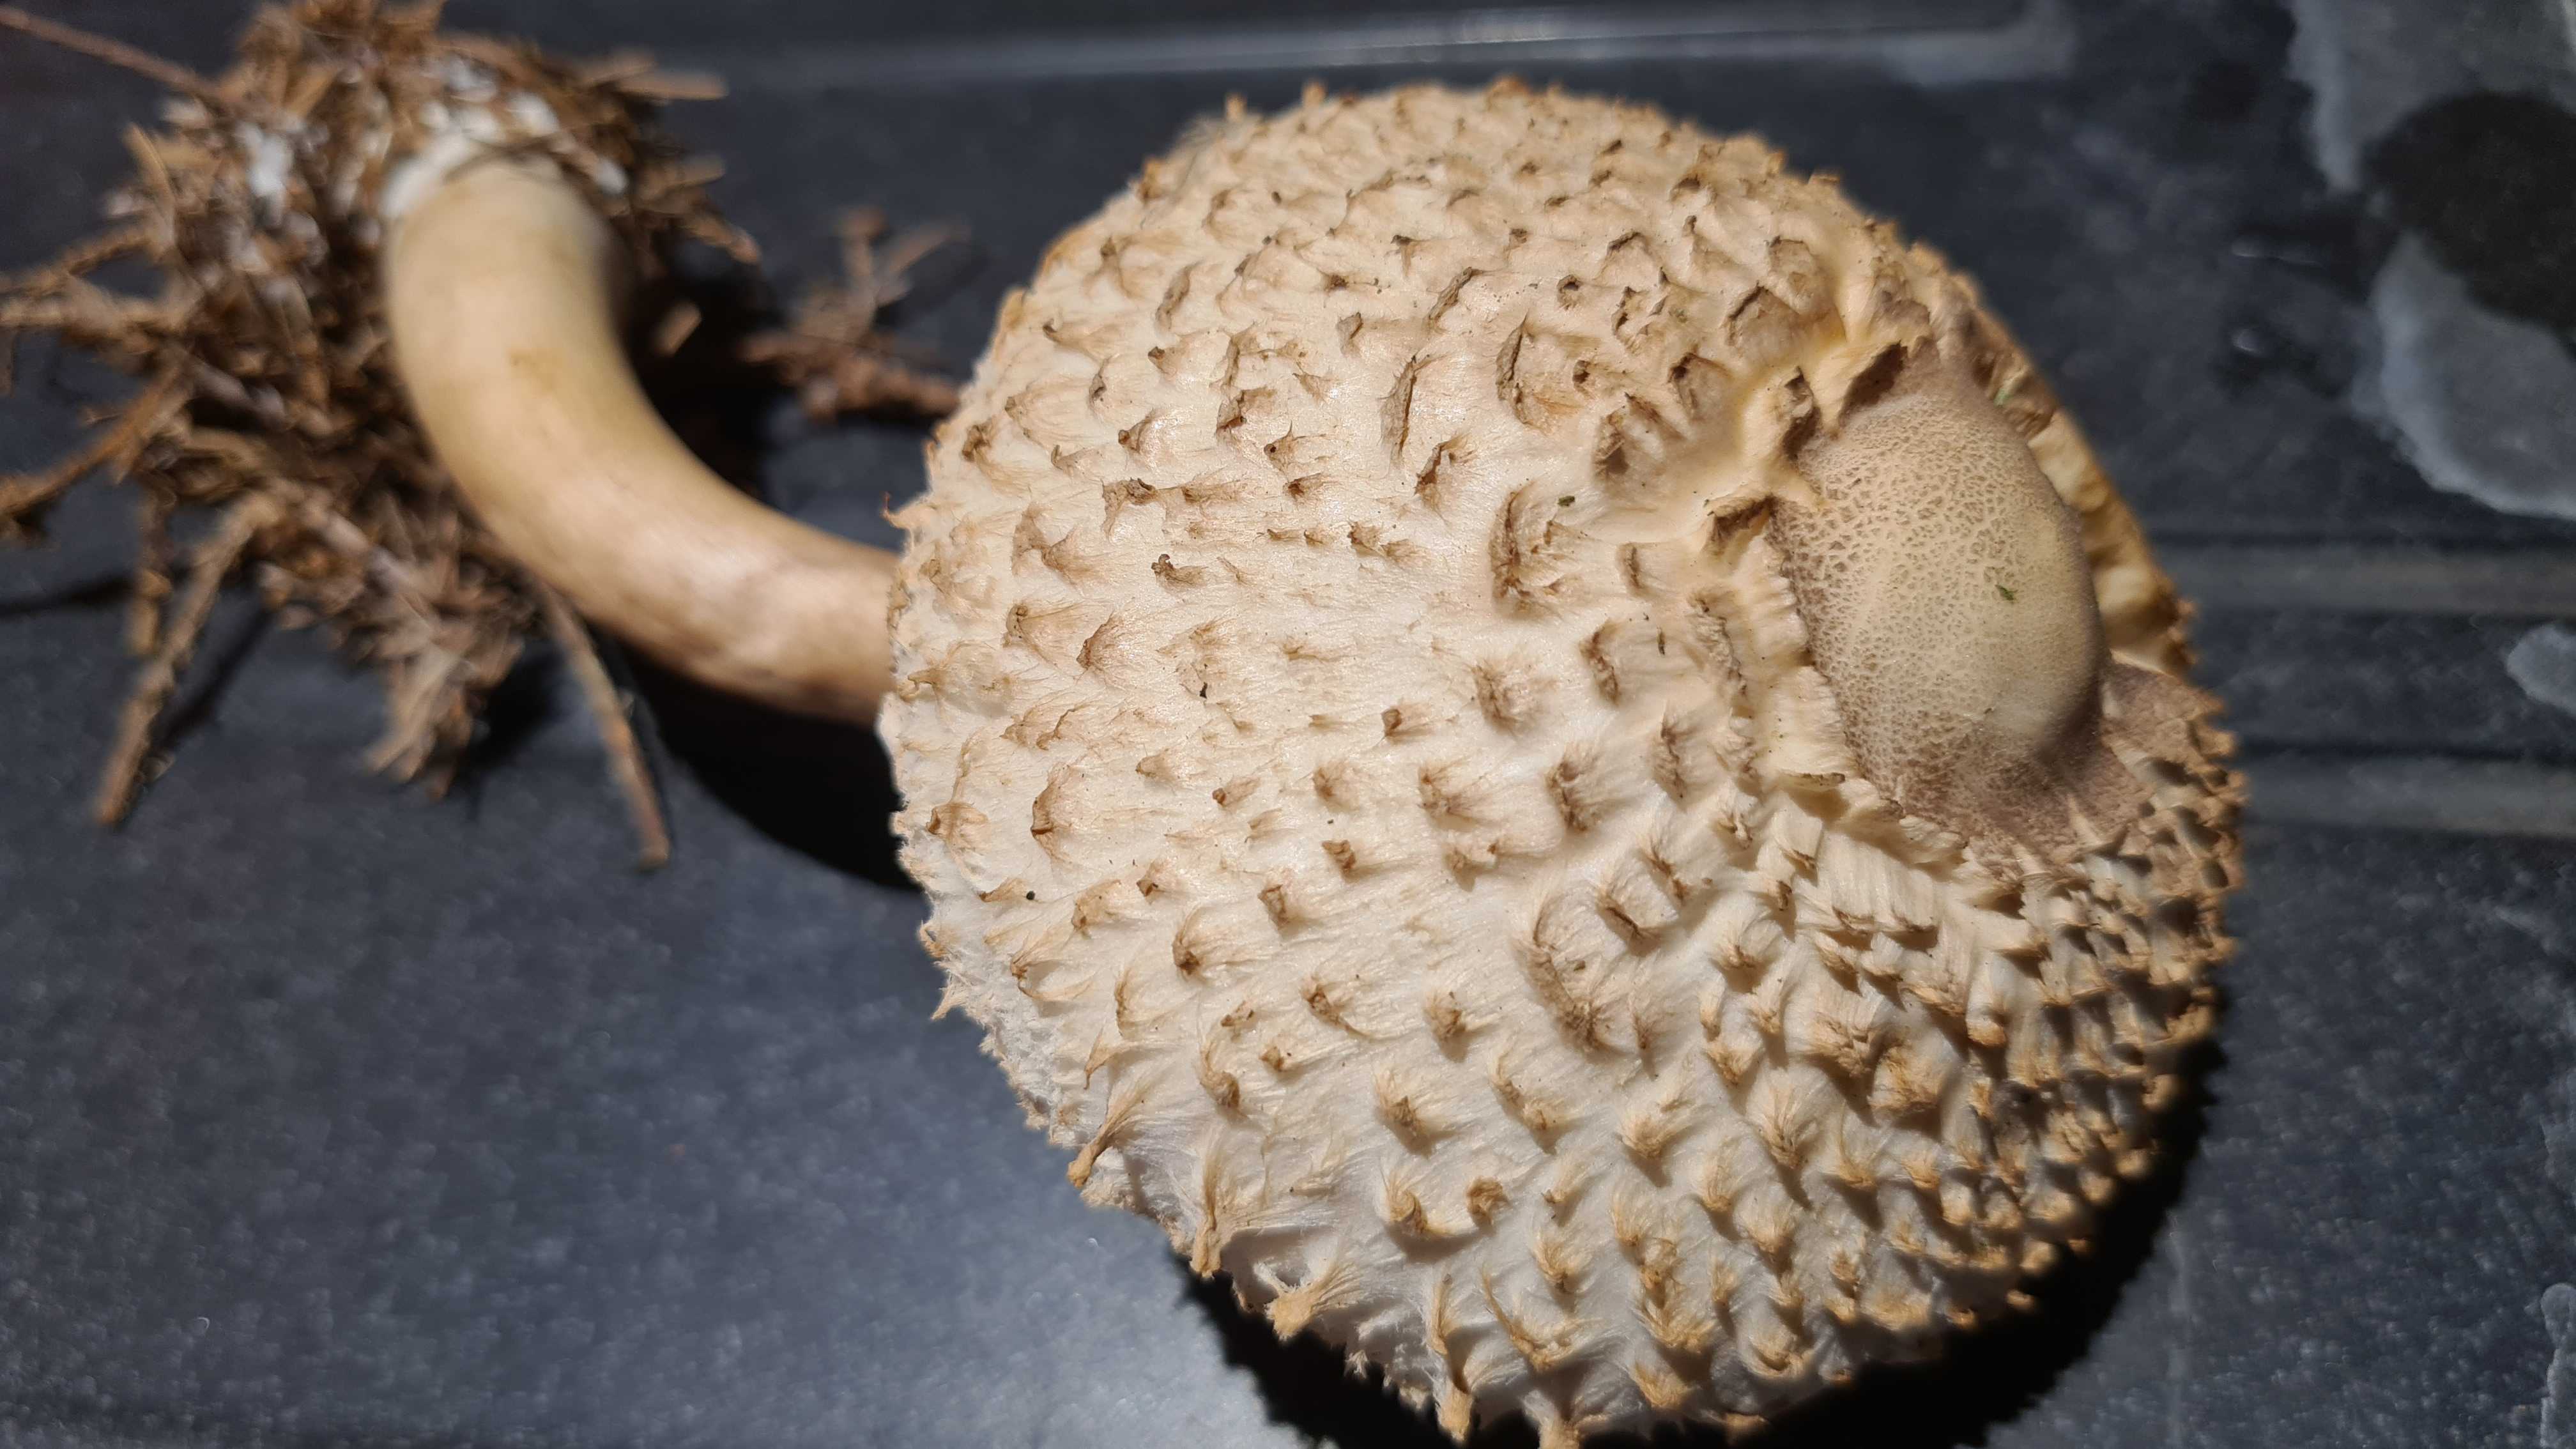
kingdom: Fungi
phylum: Basidiomycota
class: Agaricomycetes
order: Agaricales
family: Agaricaceae
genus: Leucoagaricus
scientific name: Leucoagaricus nympharum
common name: gran-silkehat
